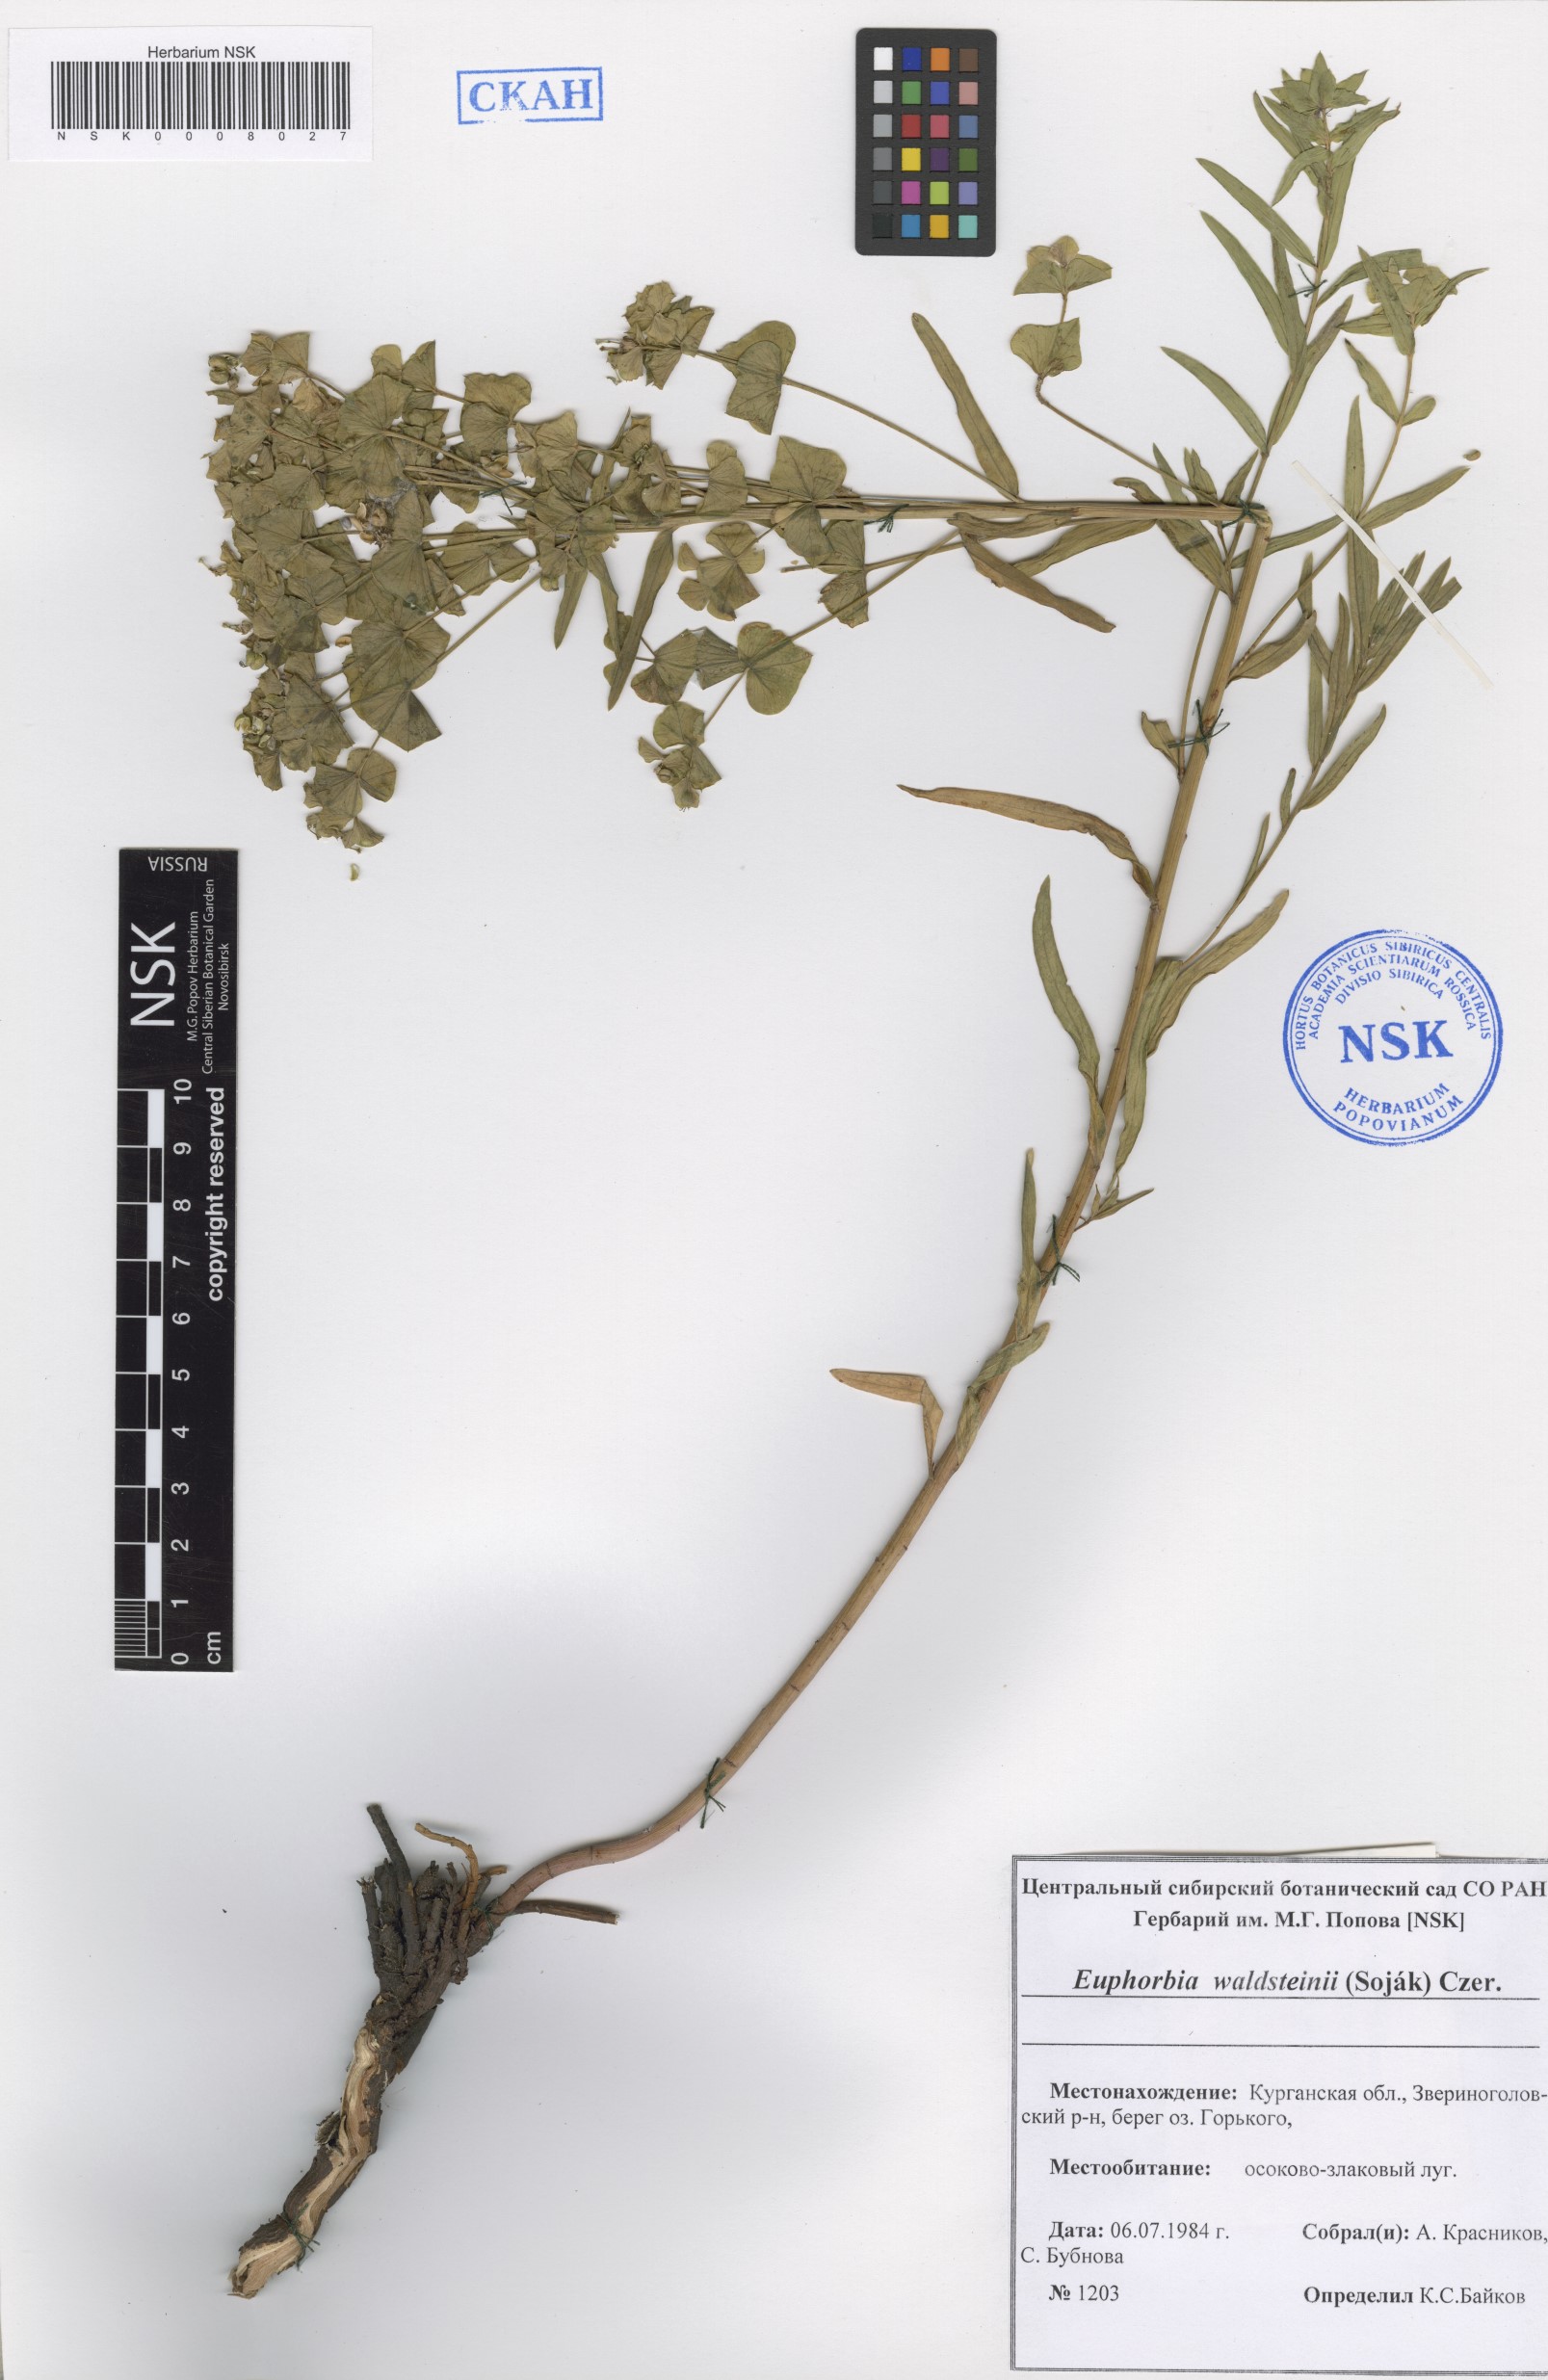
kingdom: Plantae
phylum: Tracheophyta
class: Magnoliopsida
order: Malpighiales
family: Euphorbiaceae
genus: Euphorbia
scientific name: Euphorbia virgata
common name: Leafy spurge
